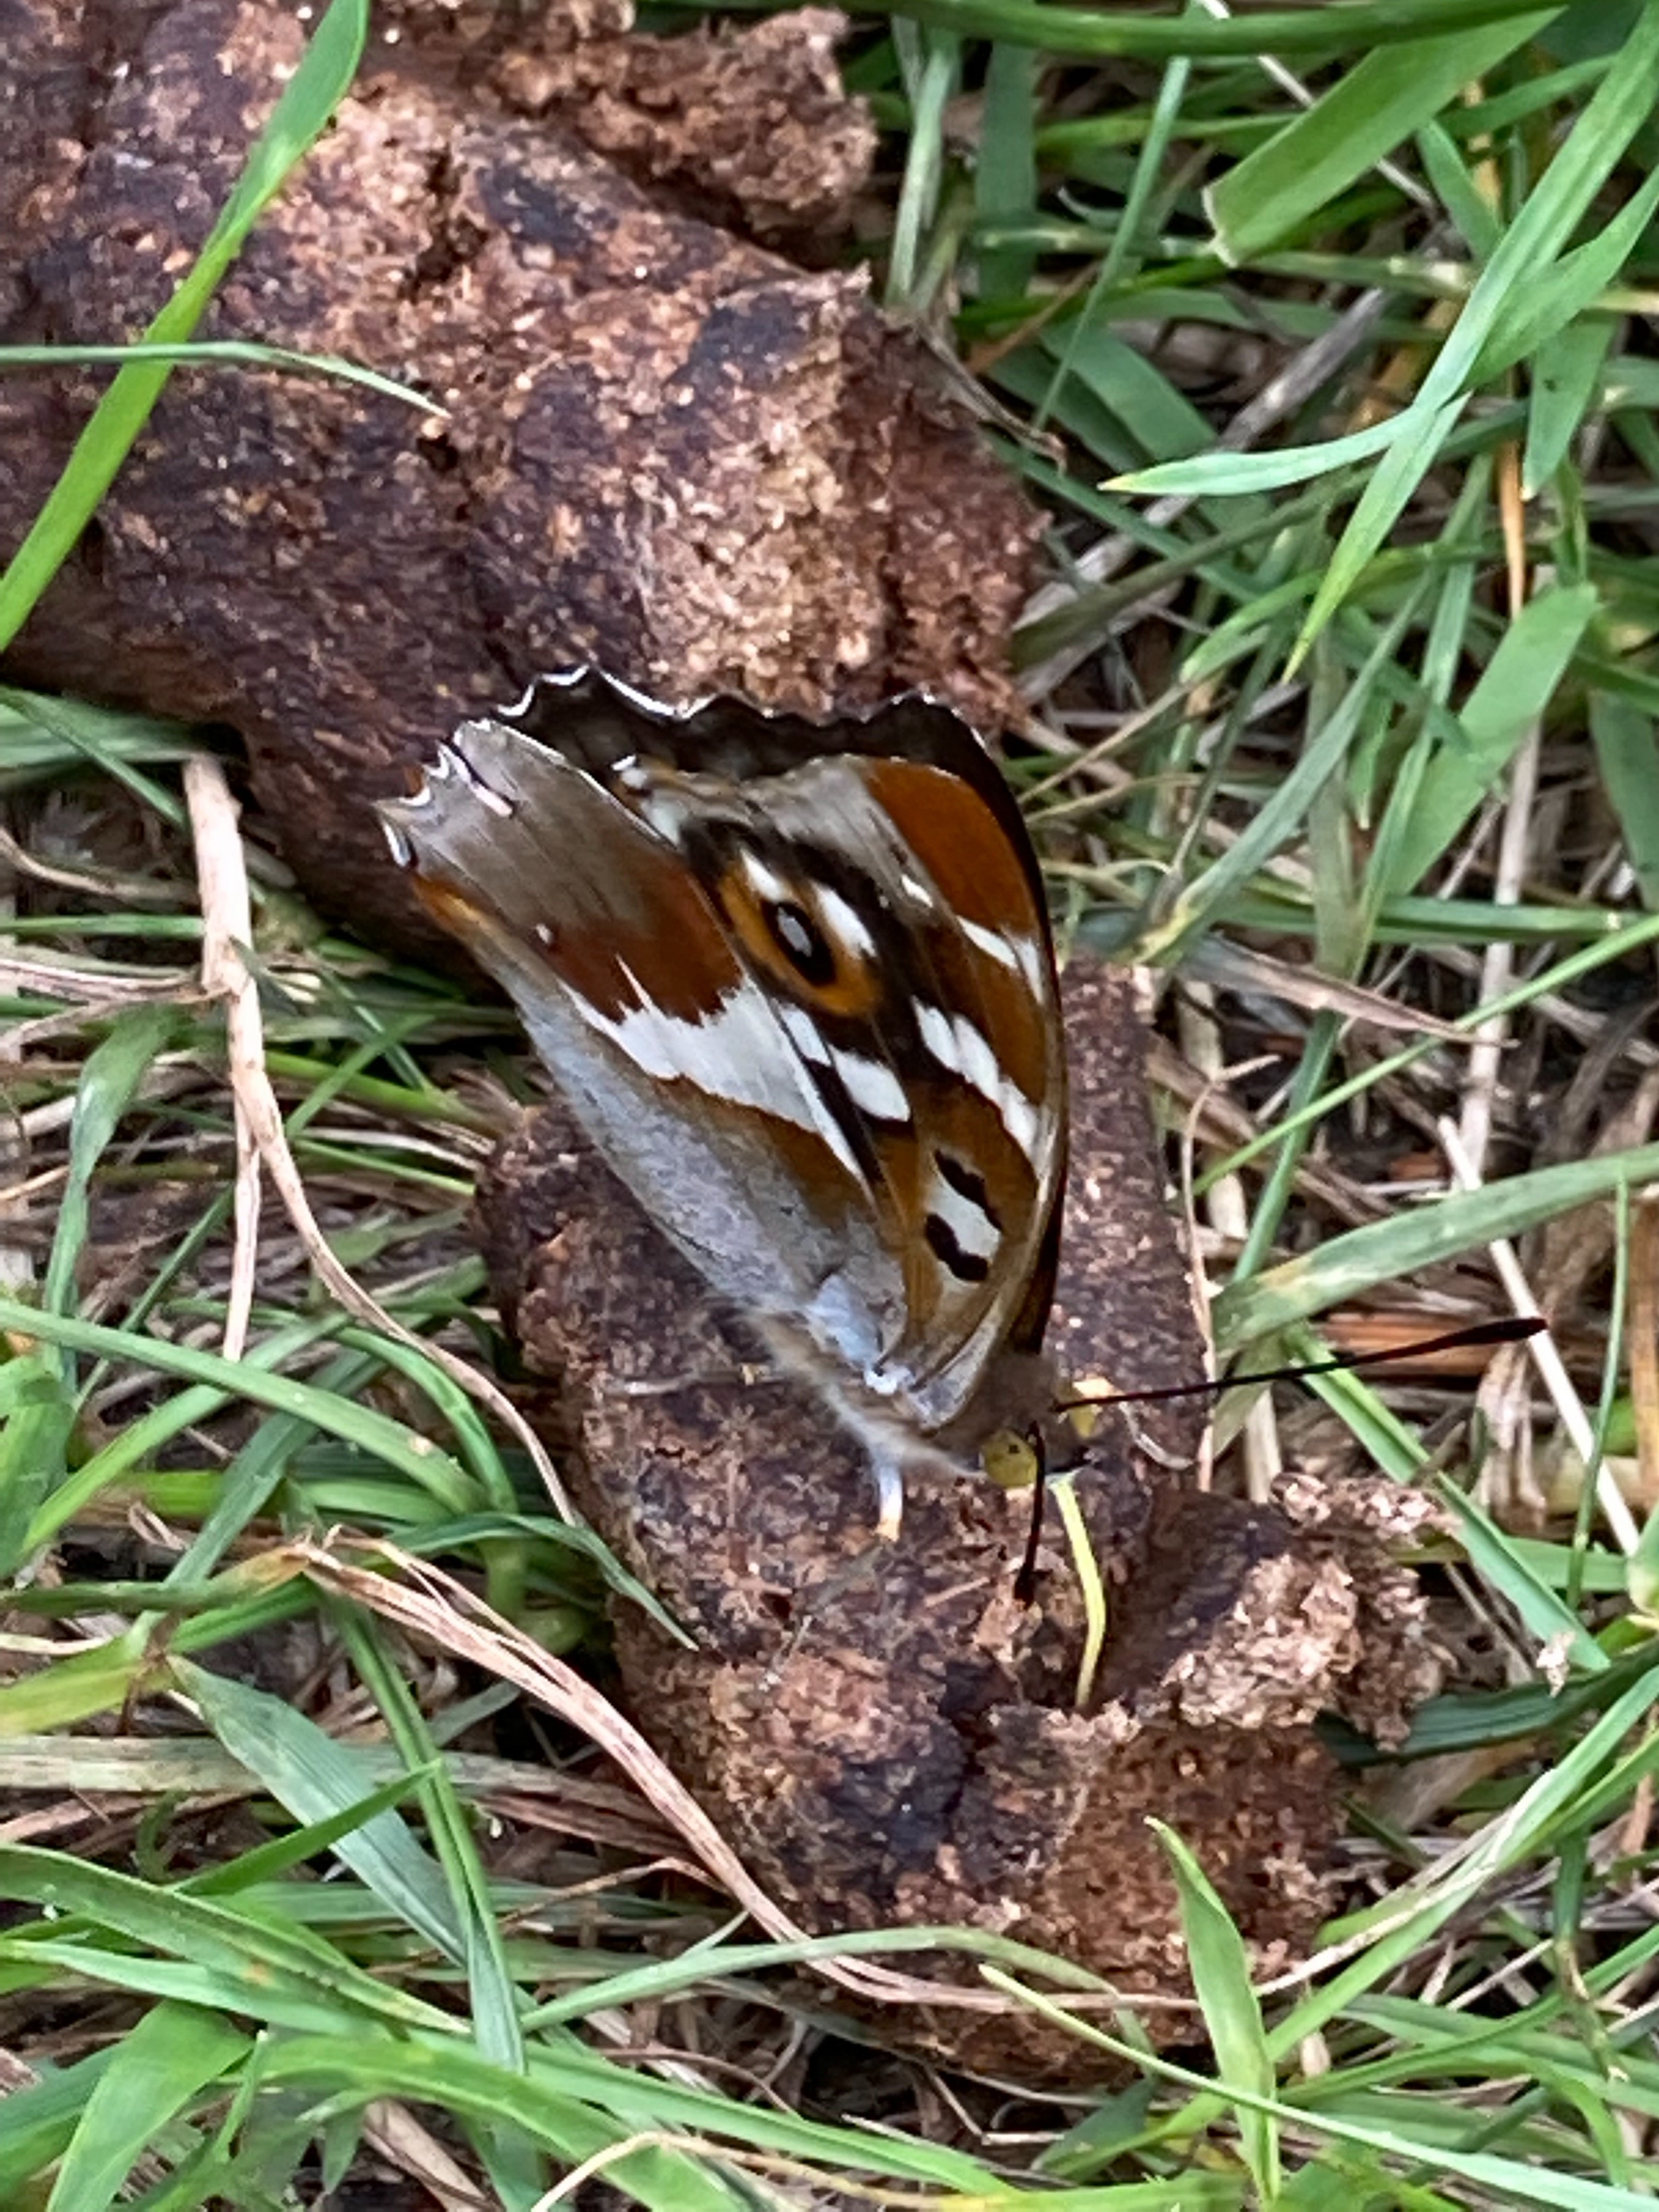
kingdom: Animalia
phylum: Arthropoda
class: Insecta
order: Lepidoptera
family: Nymphalidae
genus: Apatura
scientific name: Apatura iris
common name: Iris
